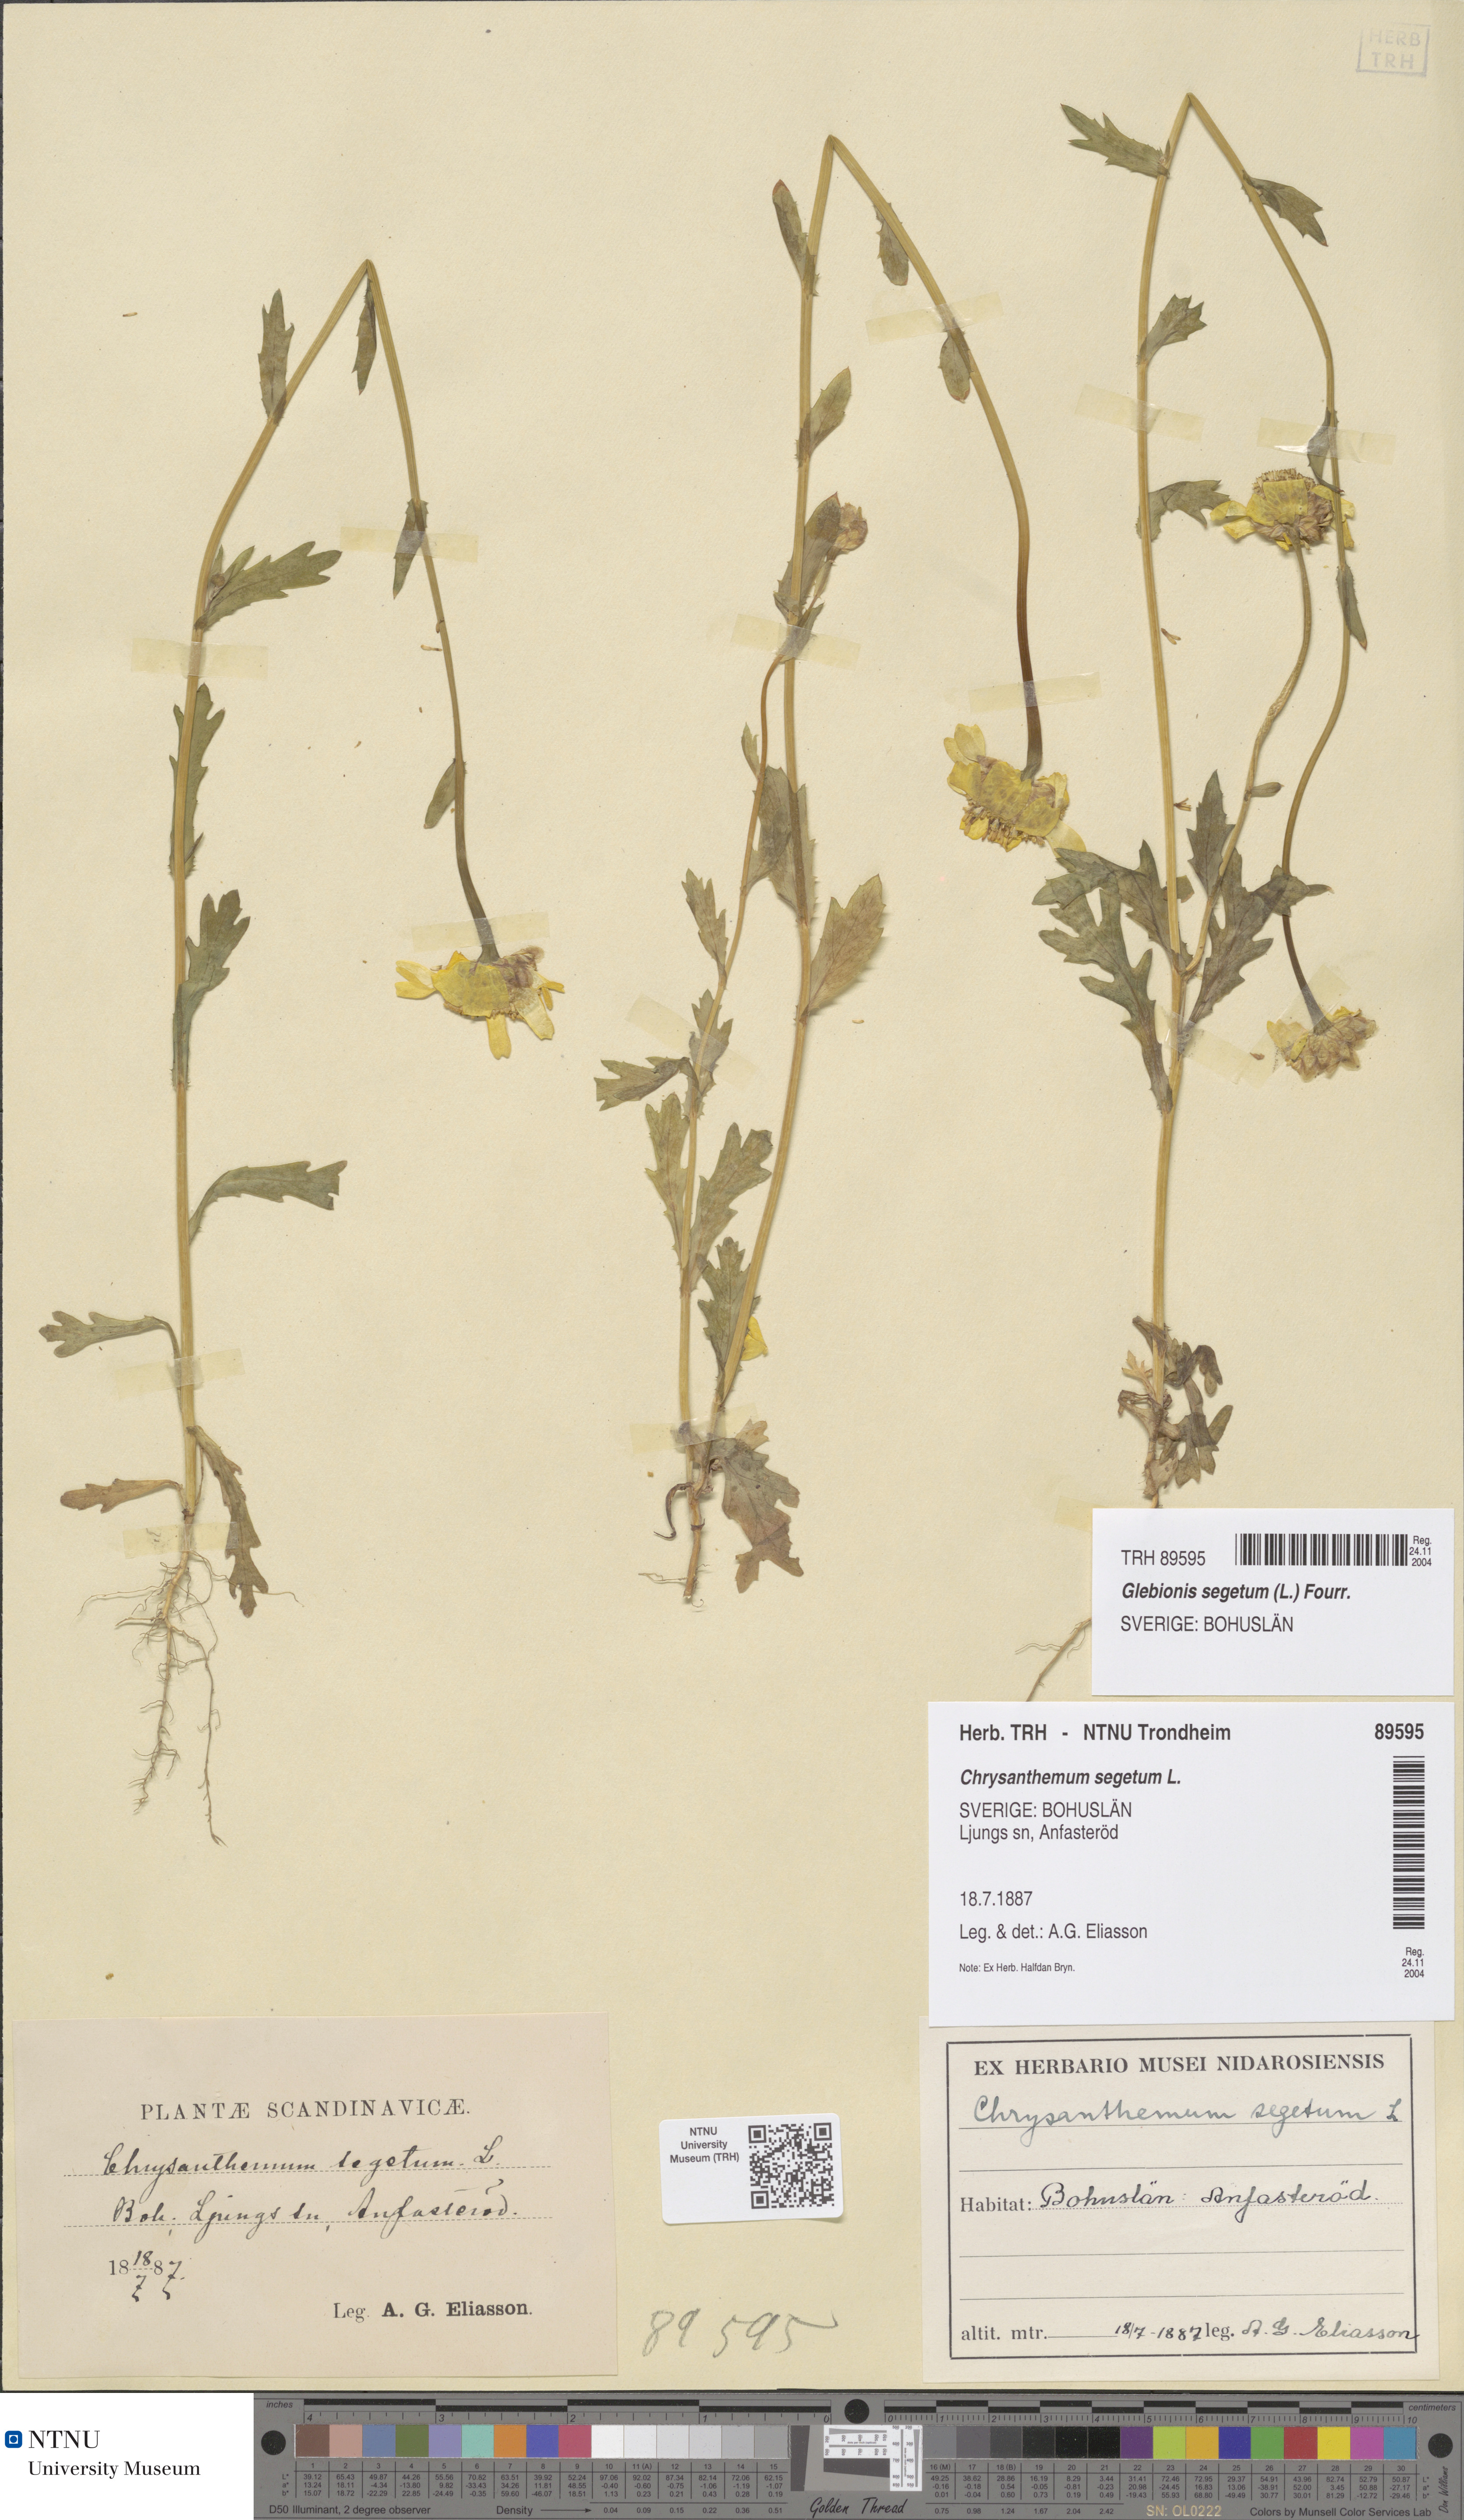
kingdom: Plantae
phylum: Tracheophyta
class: Magnoliopsida
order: Asterales
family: Asteraceae
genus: Glebionis
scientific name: Glebionis segetum
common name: Corndaisy
